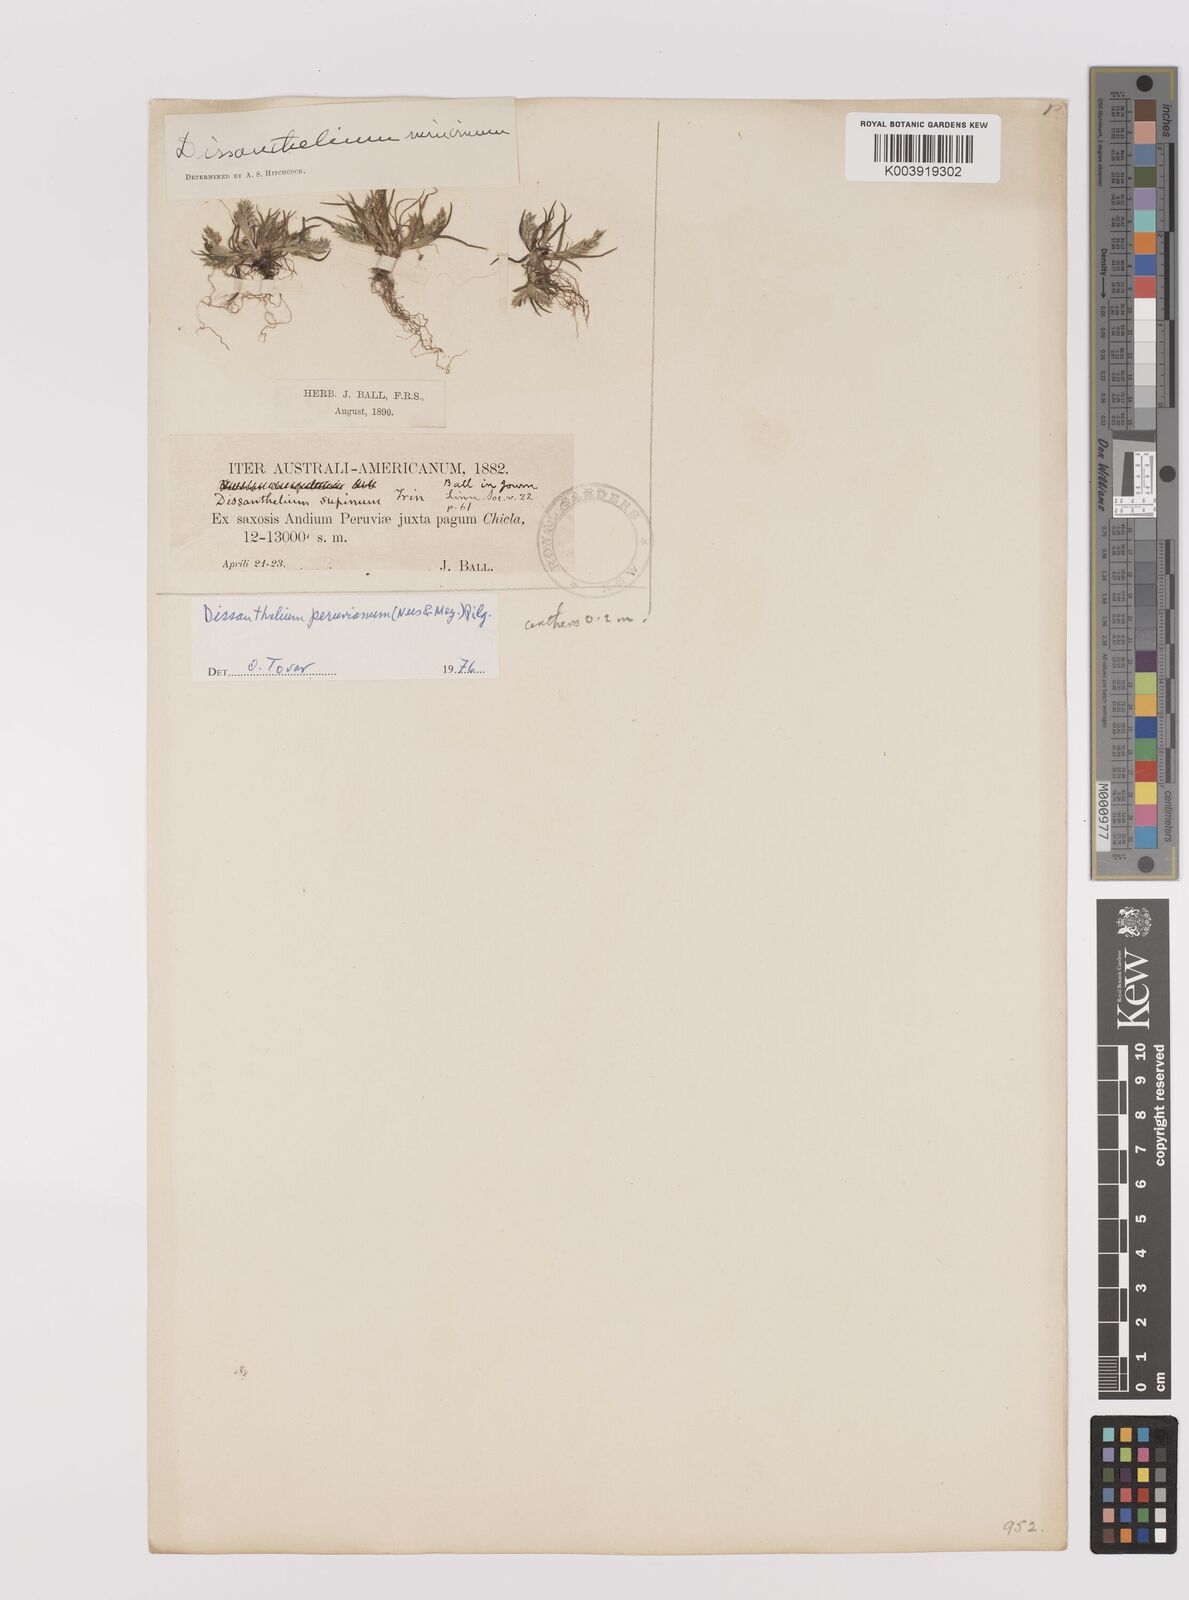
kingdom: Plantae
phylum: Tracheophyta
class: Liliopsida
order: Poales
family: Poaceae
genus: Poa
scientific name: Poa serpana
